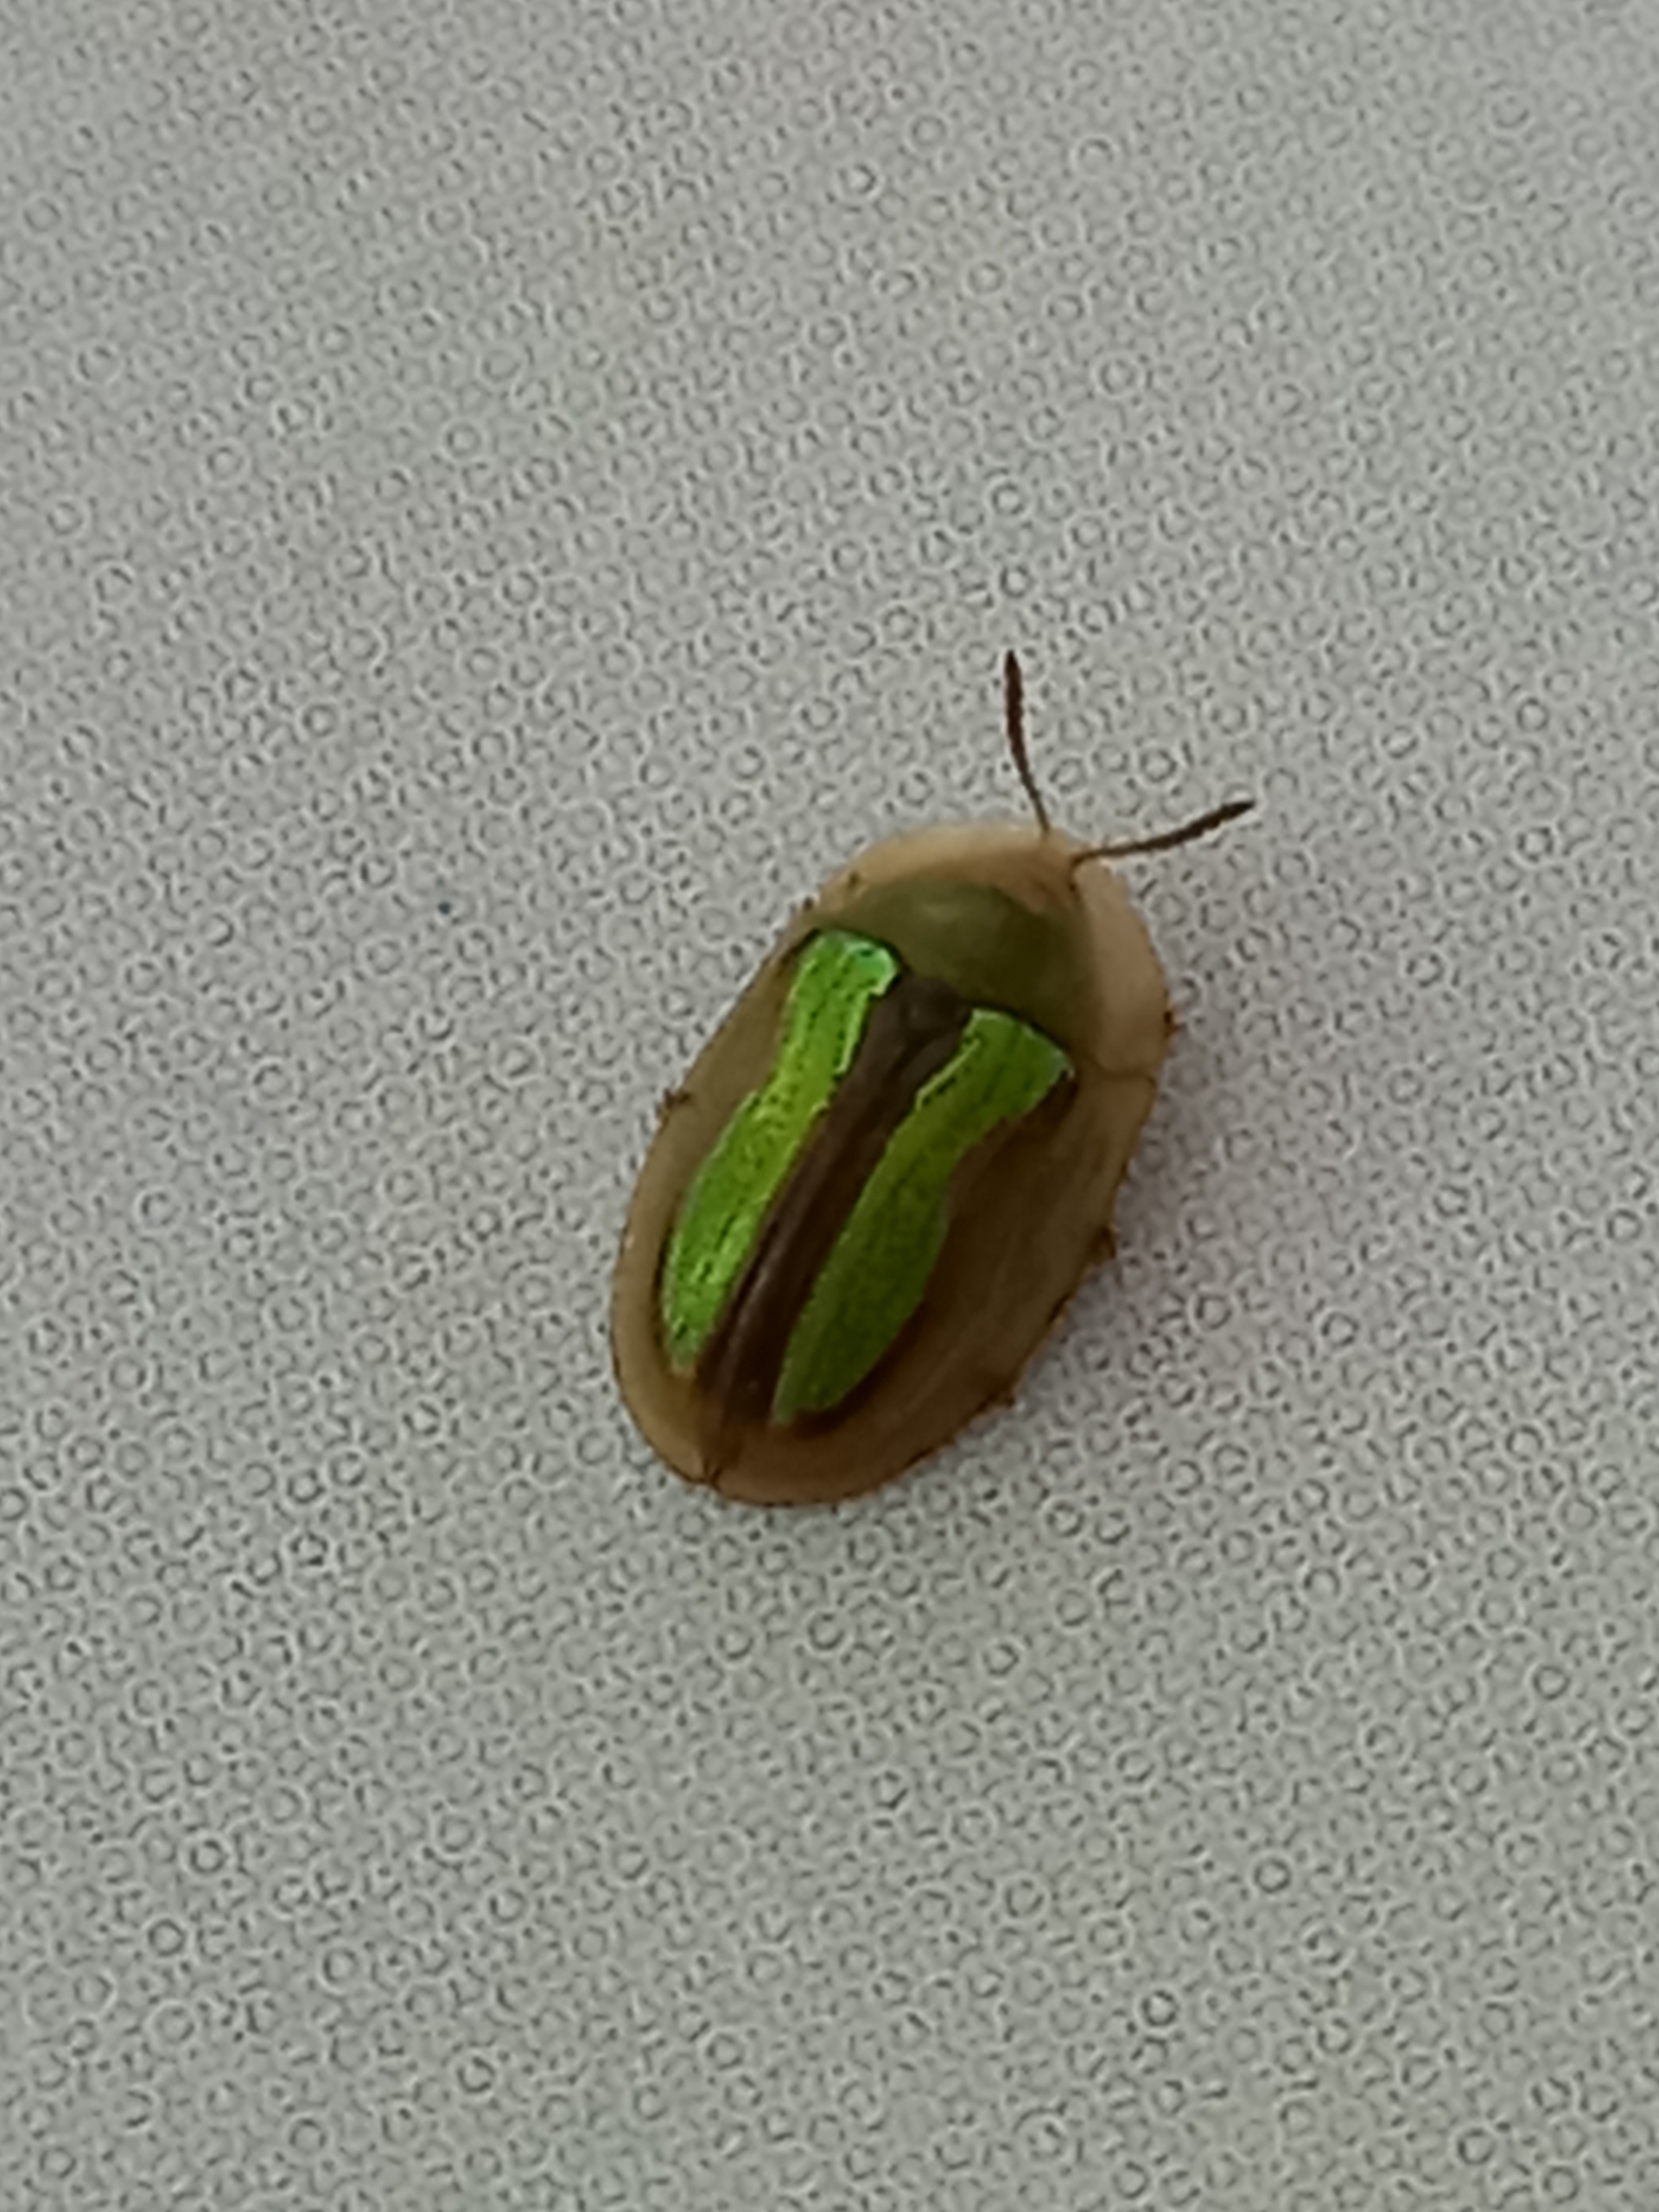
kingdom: Animalia
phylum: Arthropoda
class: Insecta
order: Coleoptera
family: Chrysomelidae
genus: Cassida
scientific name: Cassida vittata
